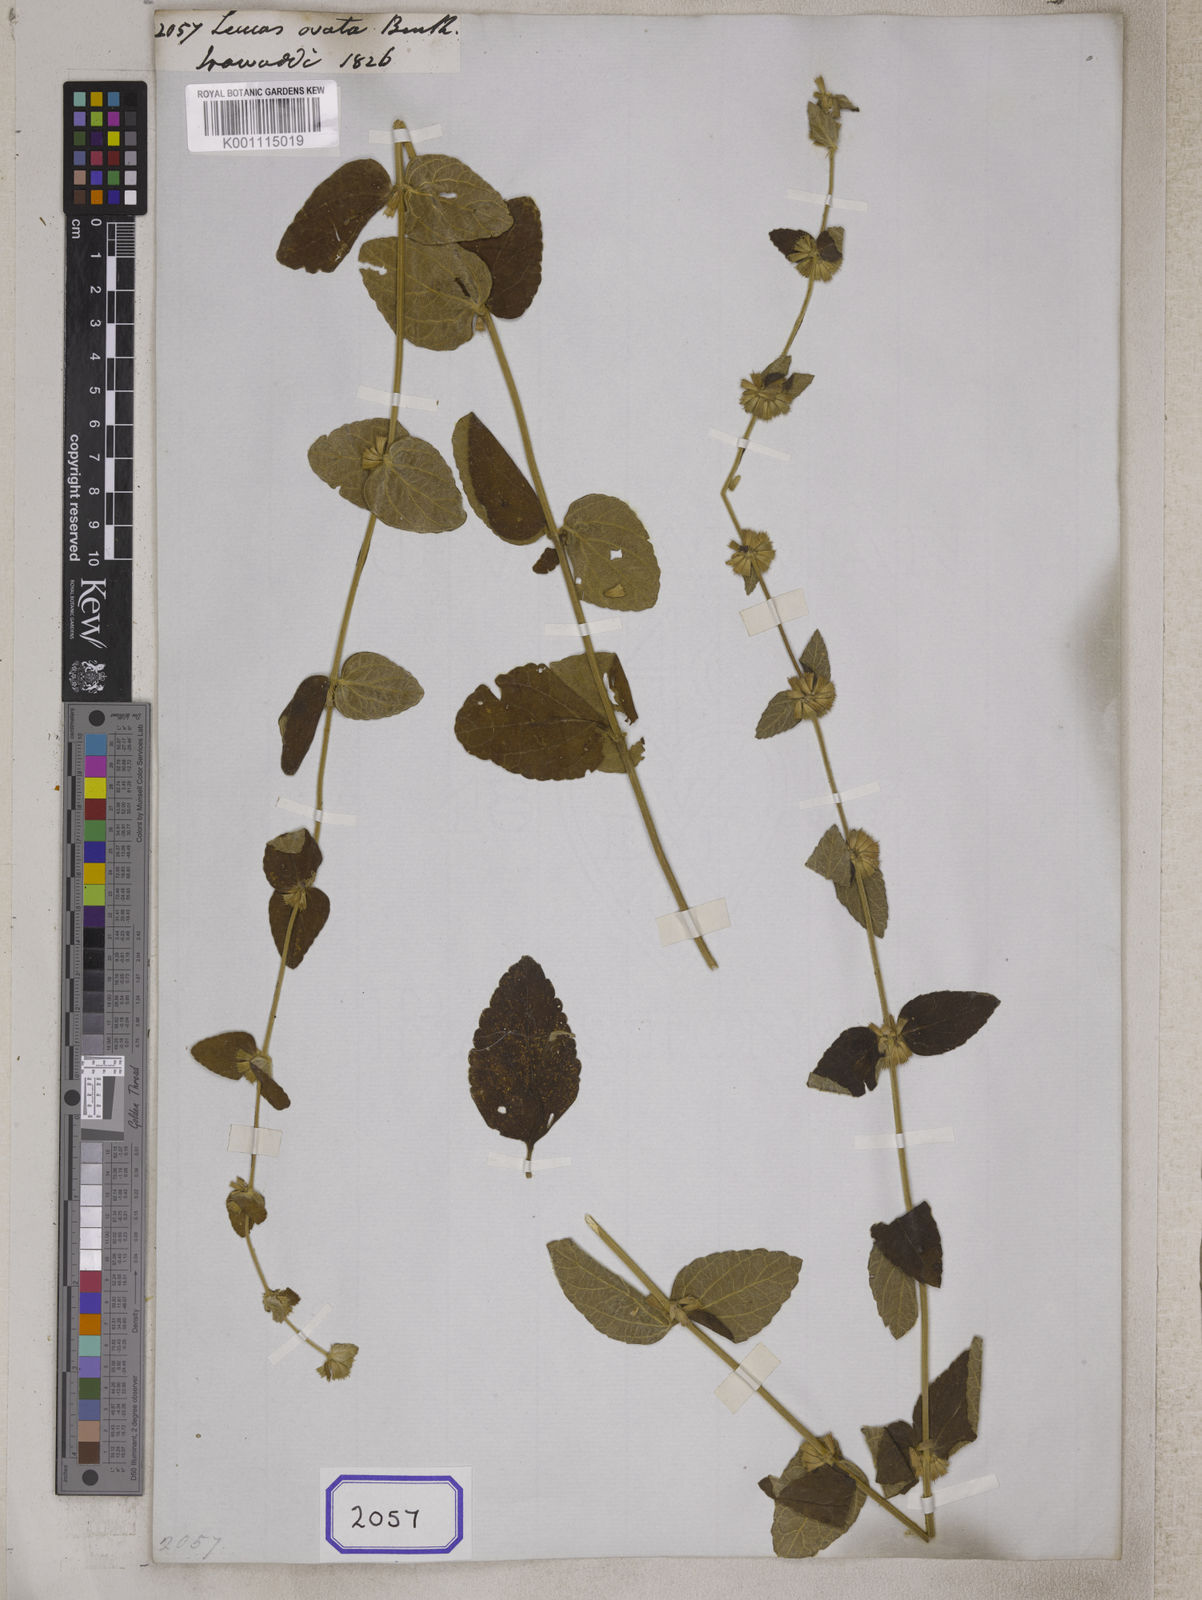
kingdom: Plantae
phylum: Tracheophyta
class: Magnoliopsida
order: Lamiales
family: Lamiaceae
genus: Leucas
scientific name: Leucas ovata
